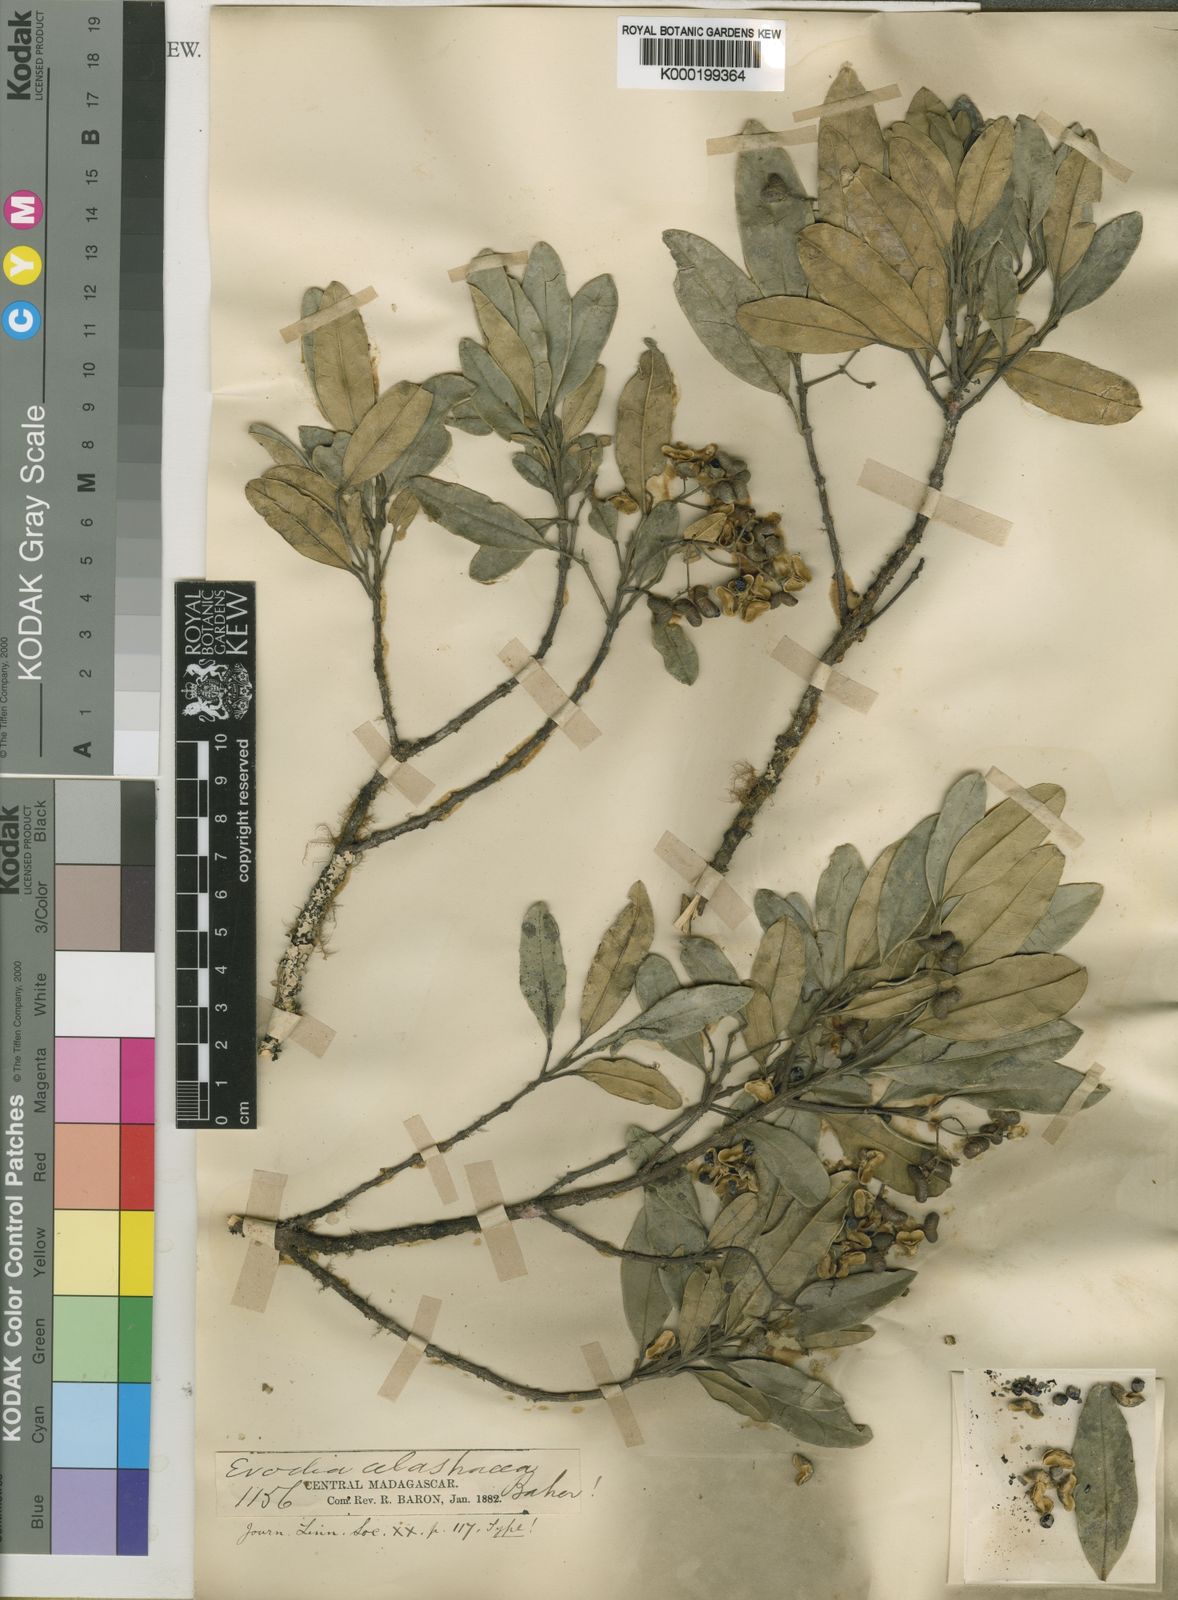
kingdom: Plantae
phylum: Tracheophyta
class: Magnoliopsida
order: Sapindales
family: Rutaceae
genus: Melicope
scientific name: Melicope madagascariensis
